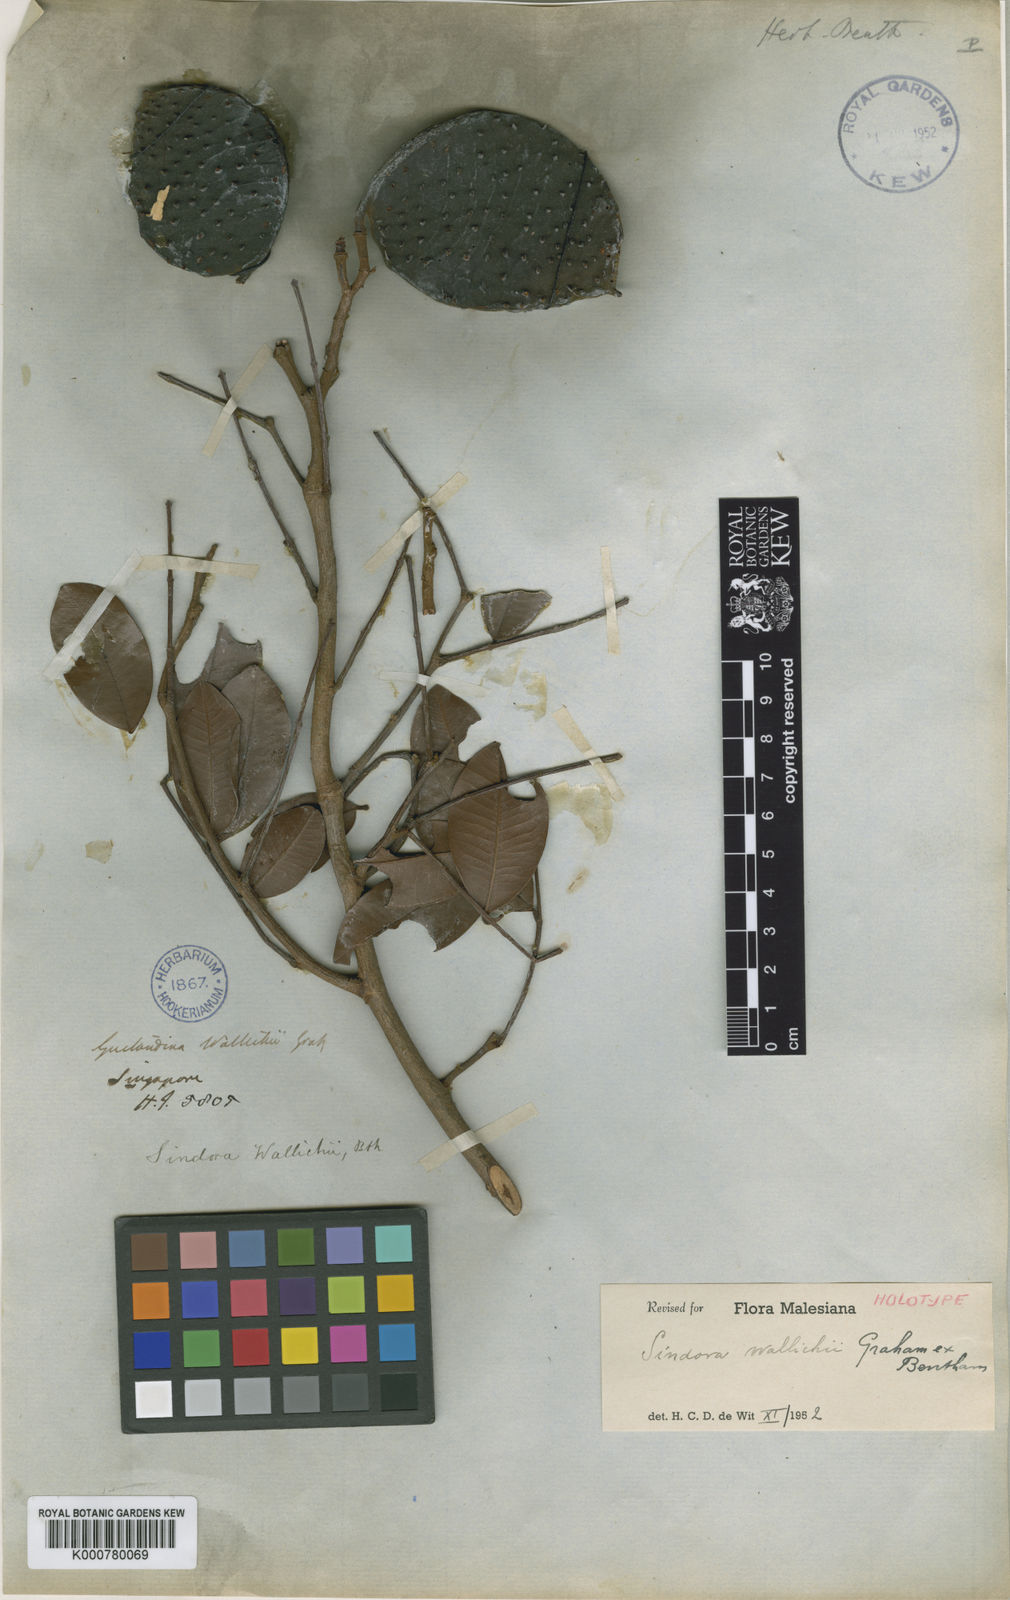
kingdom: Plantae
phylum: Tracheophyta
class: Magnoliopsida
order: Fabales
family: Fabaceae
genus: Sindora
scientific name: Sindora wallichii
